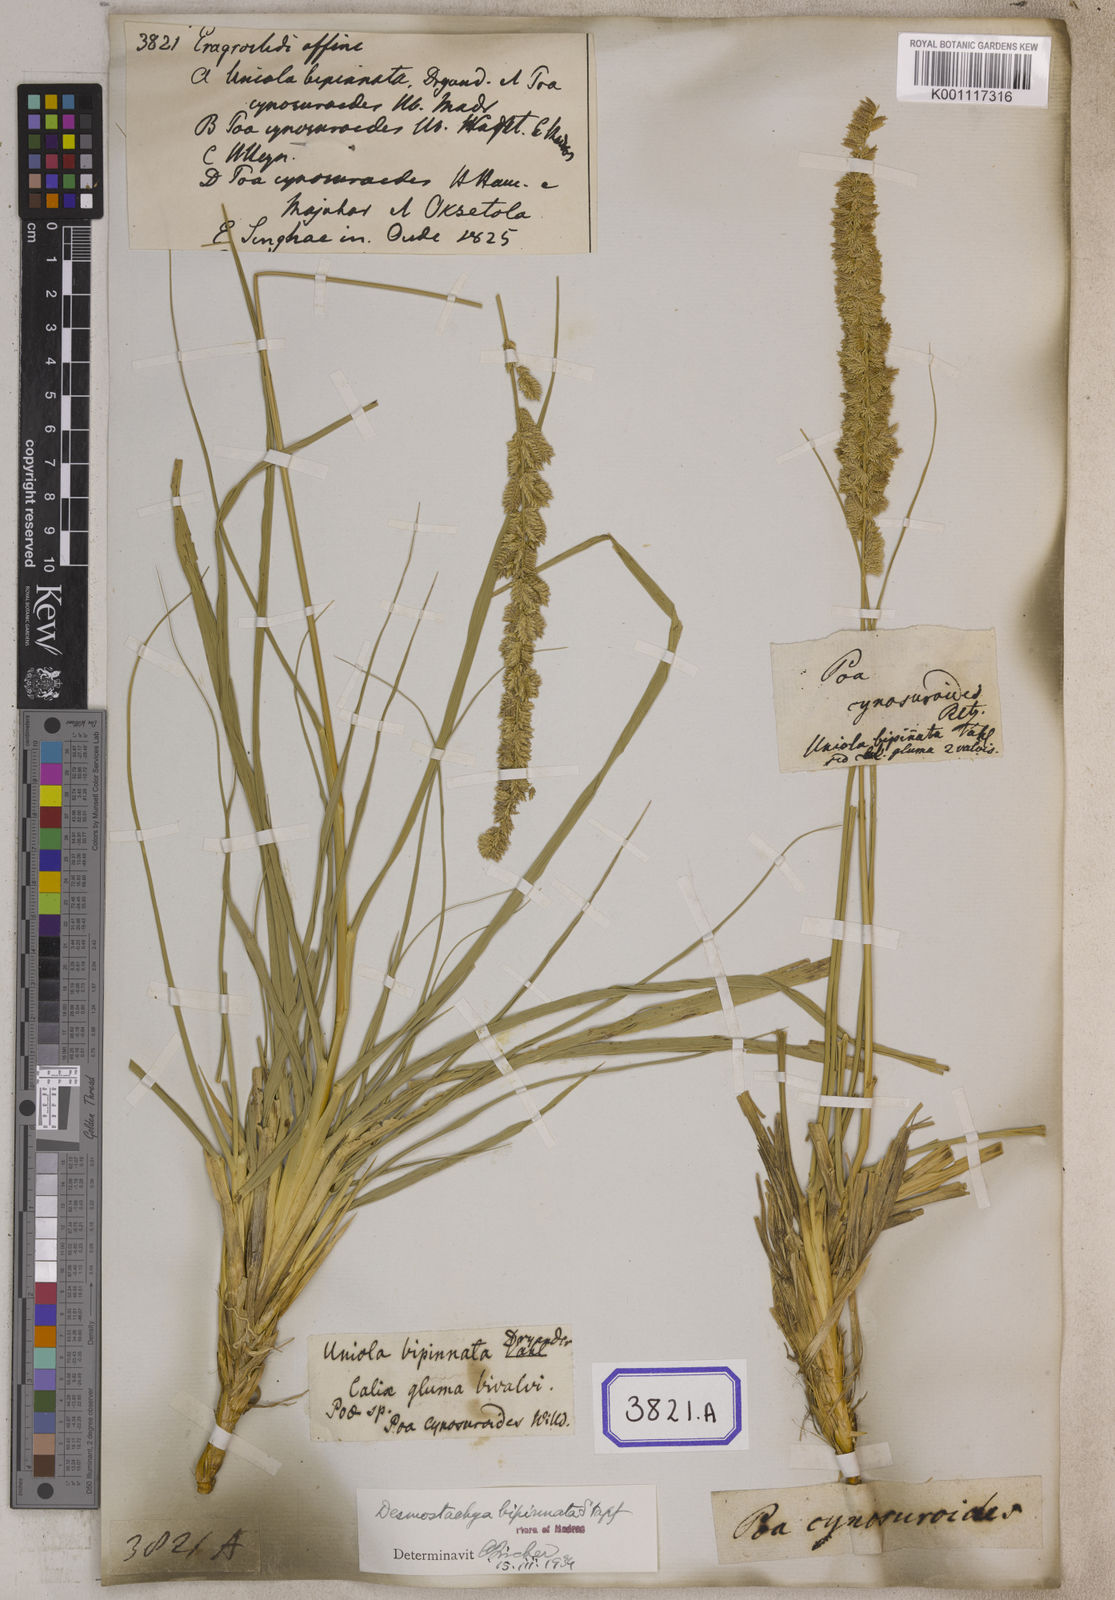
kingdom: Plantae
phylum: Tracheophyta
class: Liliopsida
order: Poales
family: Poaceae
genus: Eragrostis
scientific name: Eragrostis
